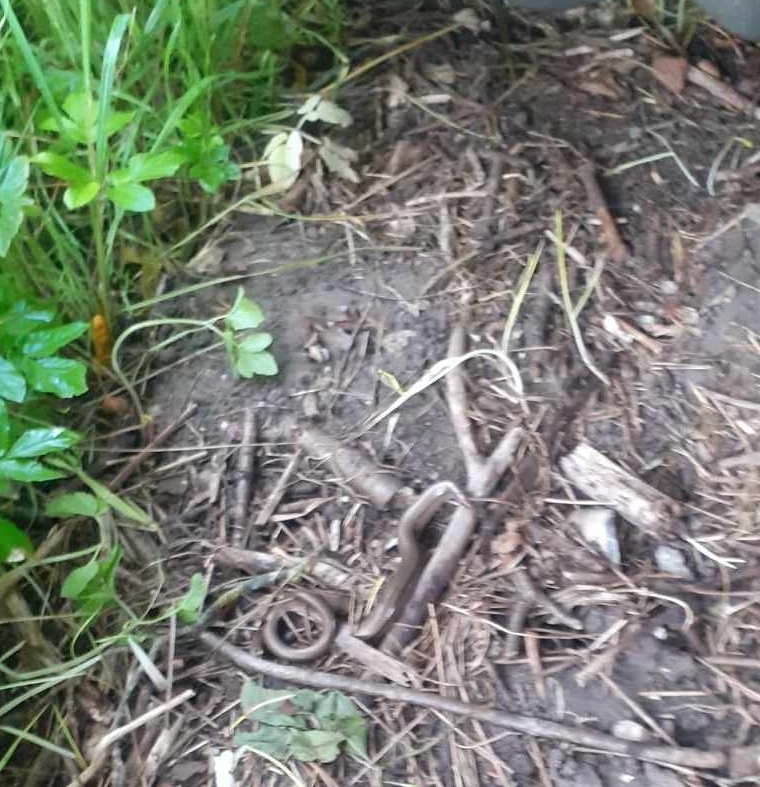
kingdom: Animalia
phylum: Chordata
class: Squamata
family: Anguidae
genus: Anguis
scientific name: Anguis fragilis
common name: Stålorm
